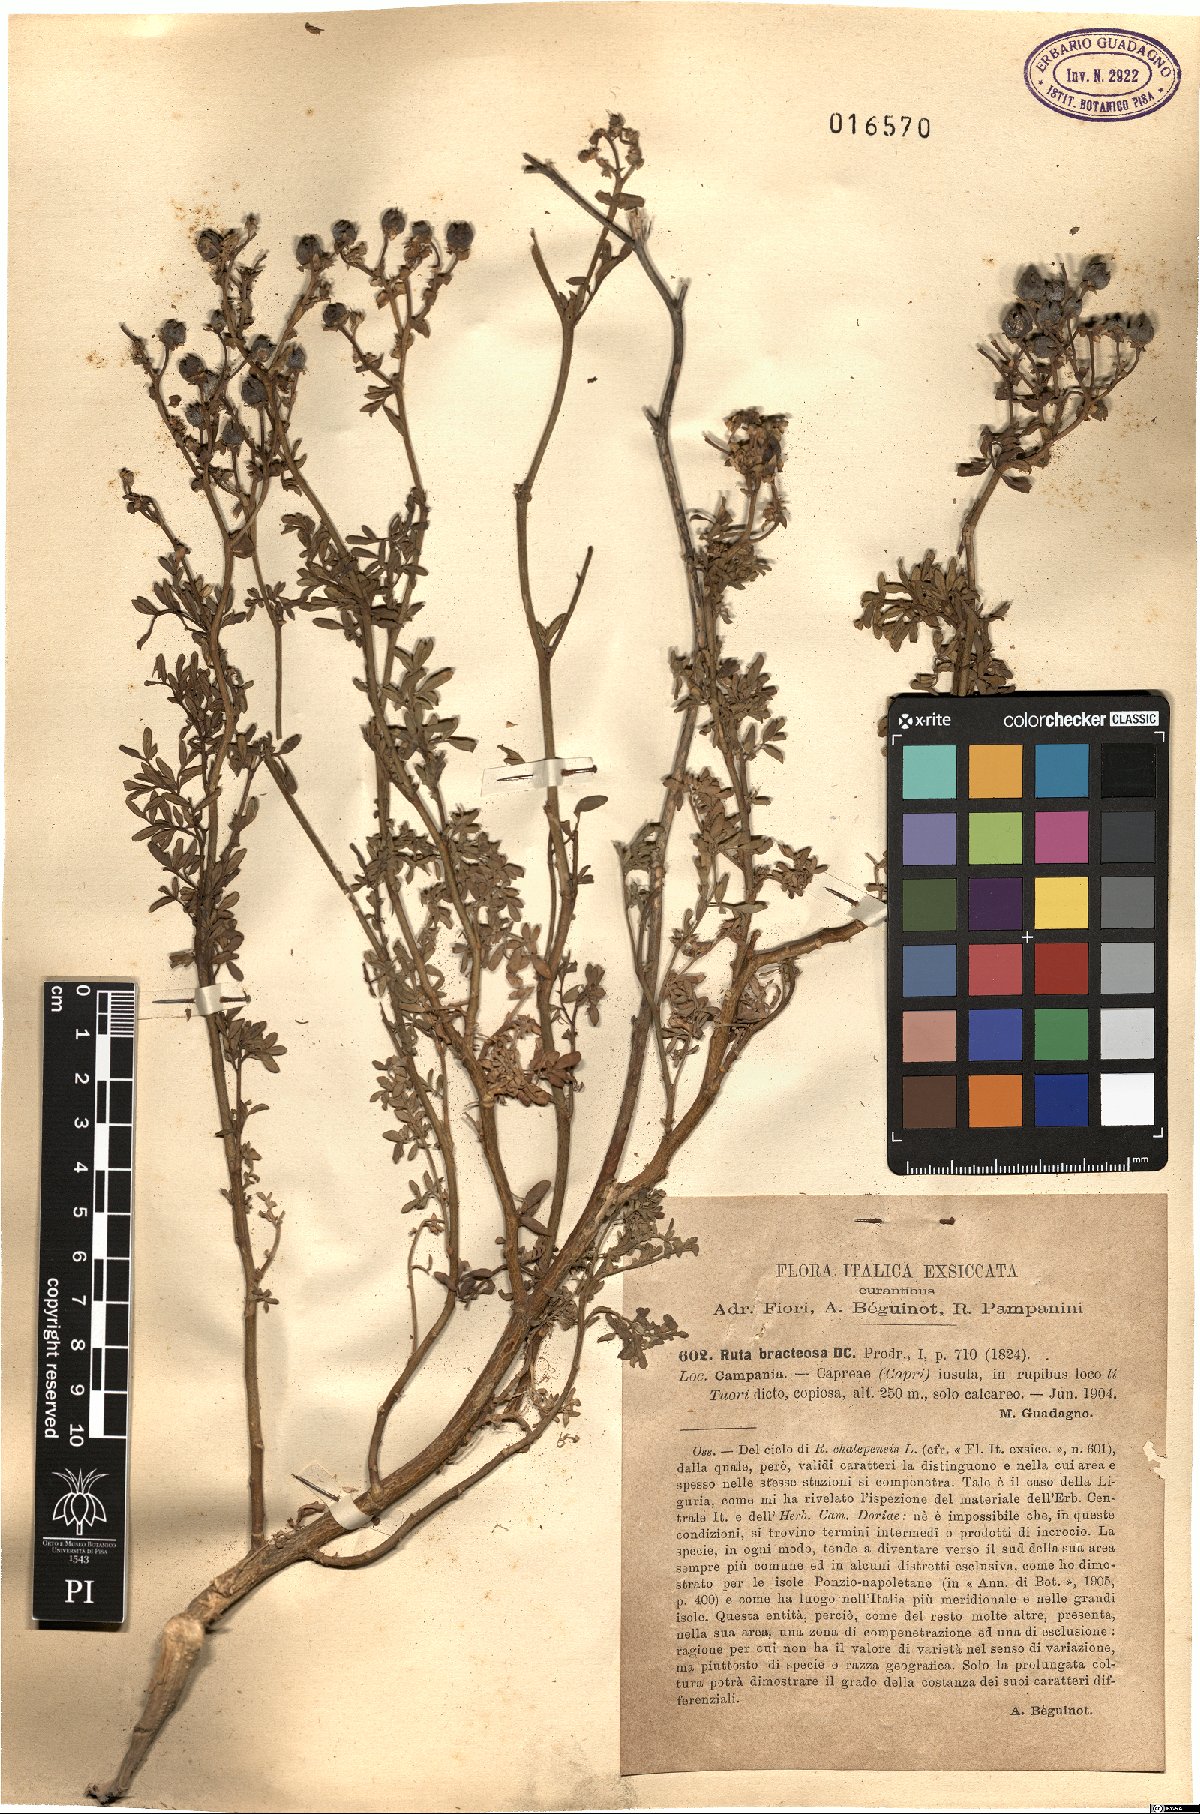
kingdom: Plantae
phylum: Tracheophyta
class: Magnoliopsida
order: Sapindales
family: Rutaceae
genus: Ruta
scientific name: Ruta chalepensis
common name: Fringed rue
